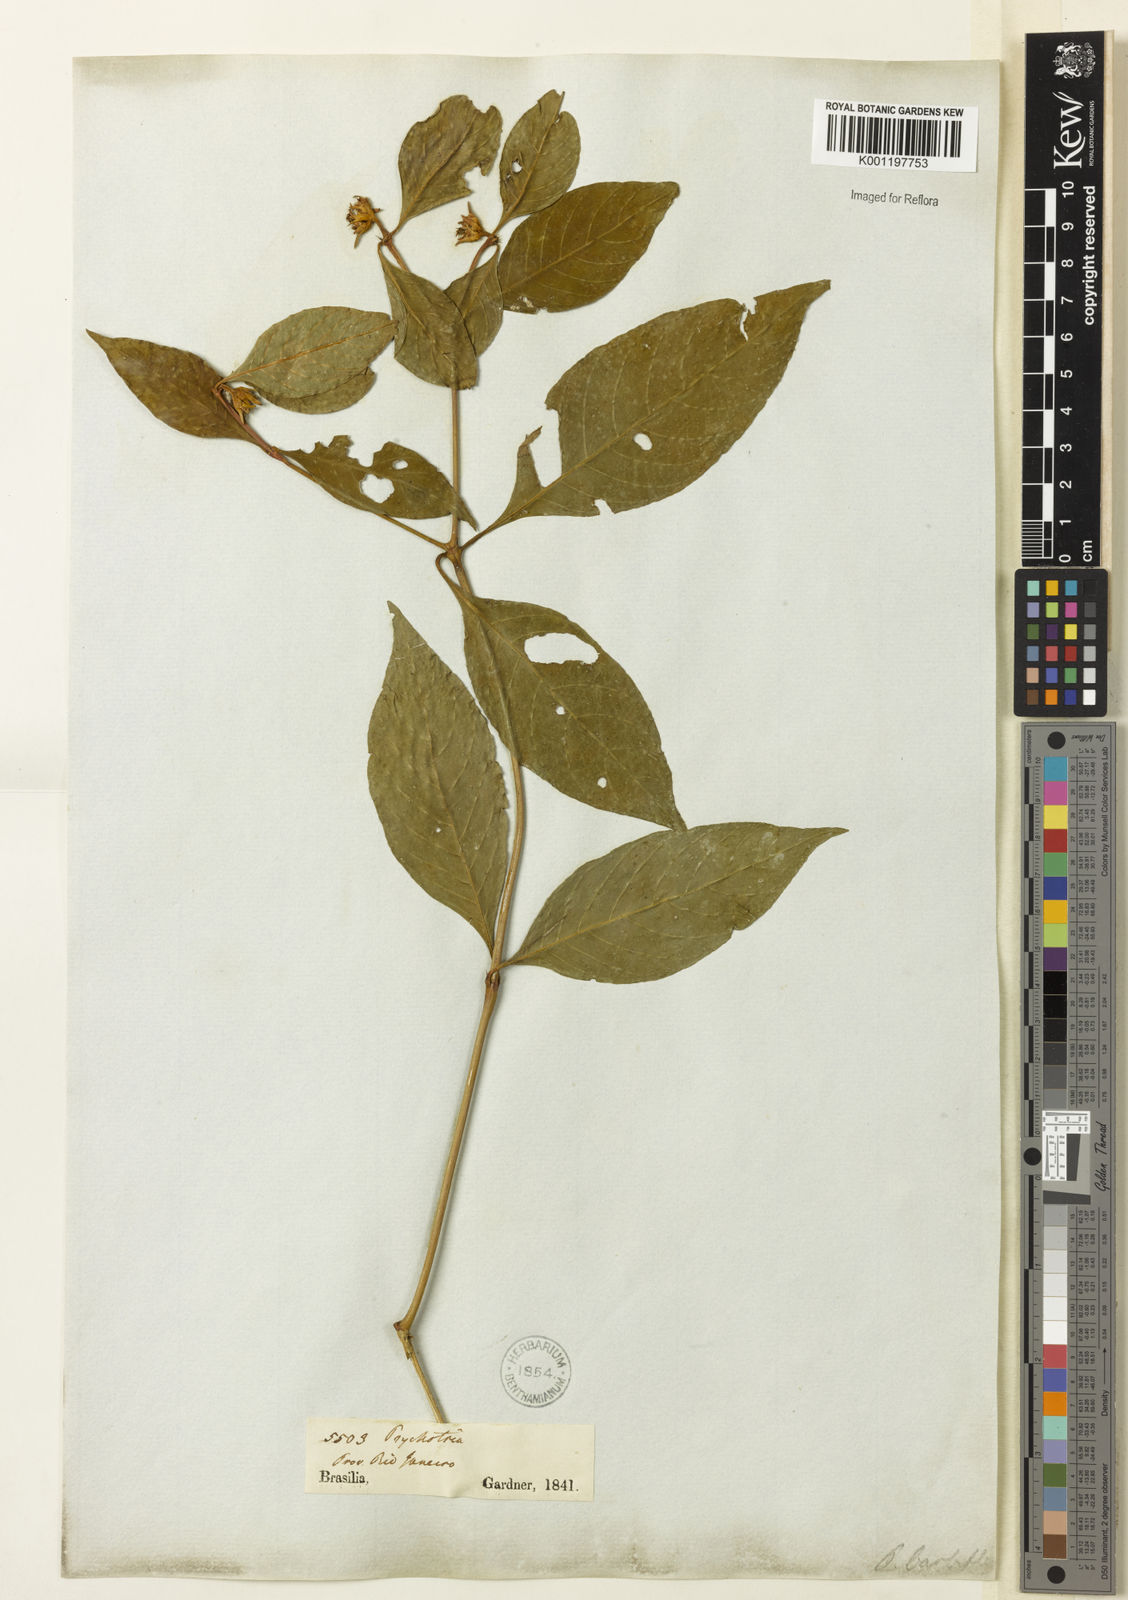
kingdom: Plantae
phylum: Tracheophyta
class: Magnoliopsida
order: Gentianales
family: Rubiaceae
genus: Palicourea
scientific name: Palicourea hoffmannseggiana
